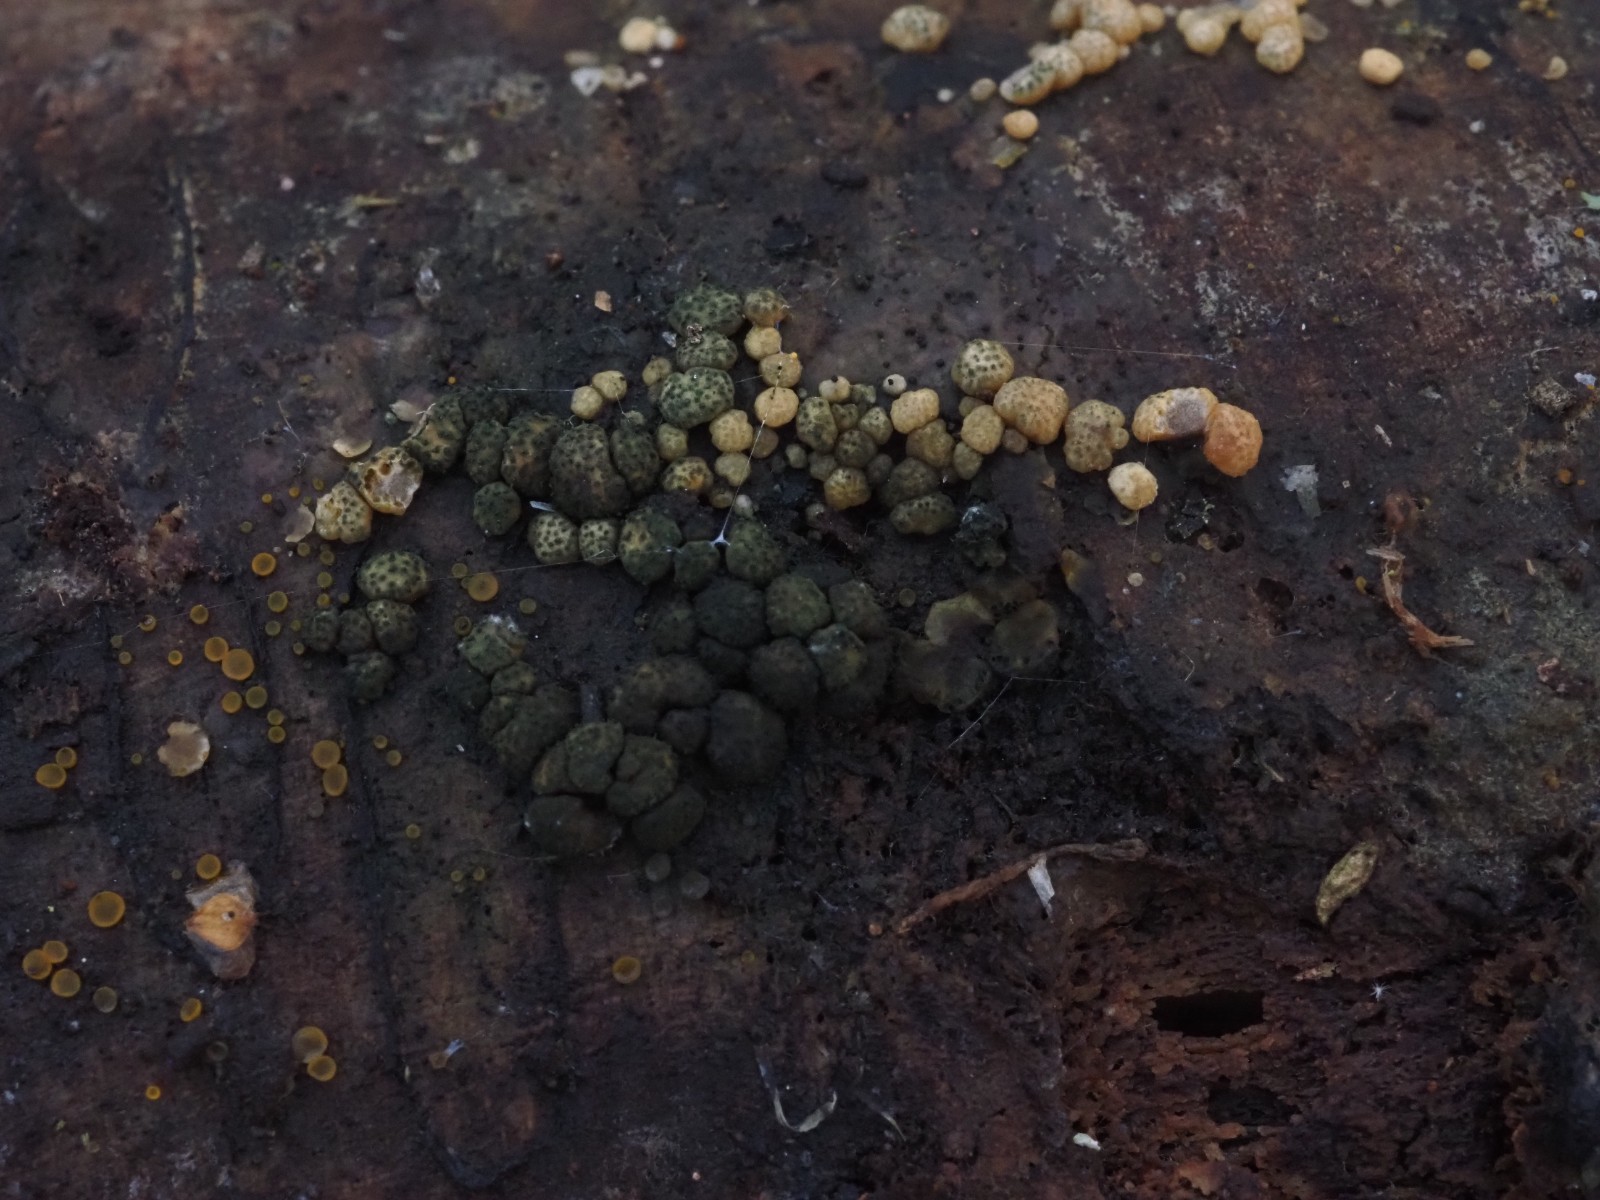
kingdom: Fungi
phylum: Ascomycota
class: Sordariomycetes
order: Hypocreales
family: Hypocreaceae
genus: Trichoderma
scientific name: Trichoderma strictipile
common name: grønprikket kødkerne
